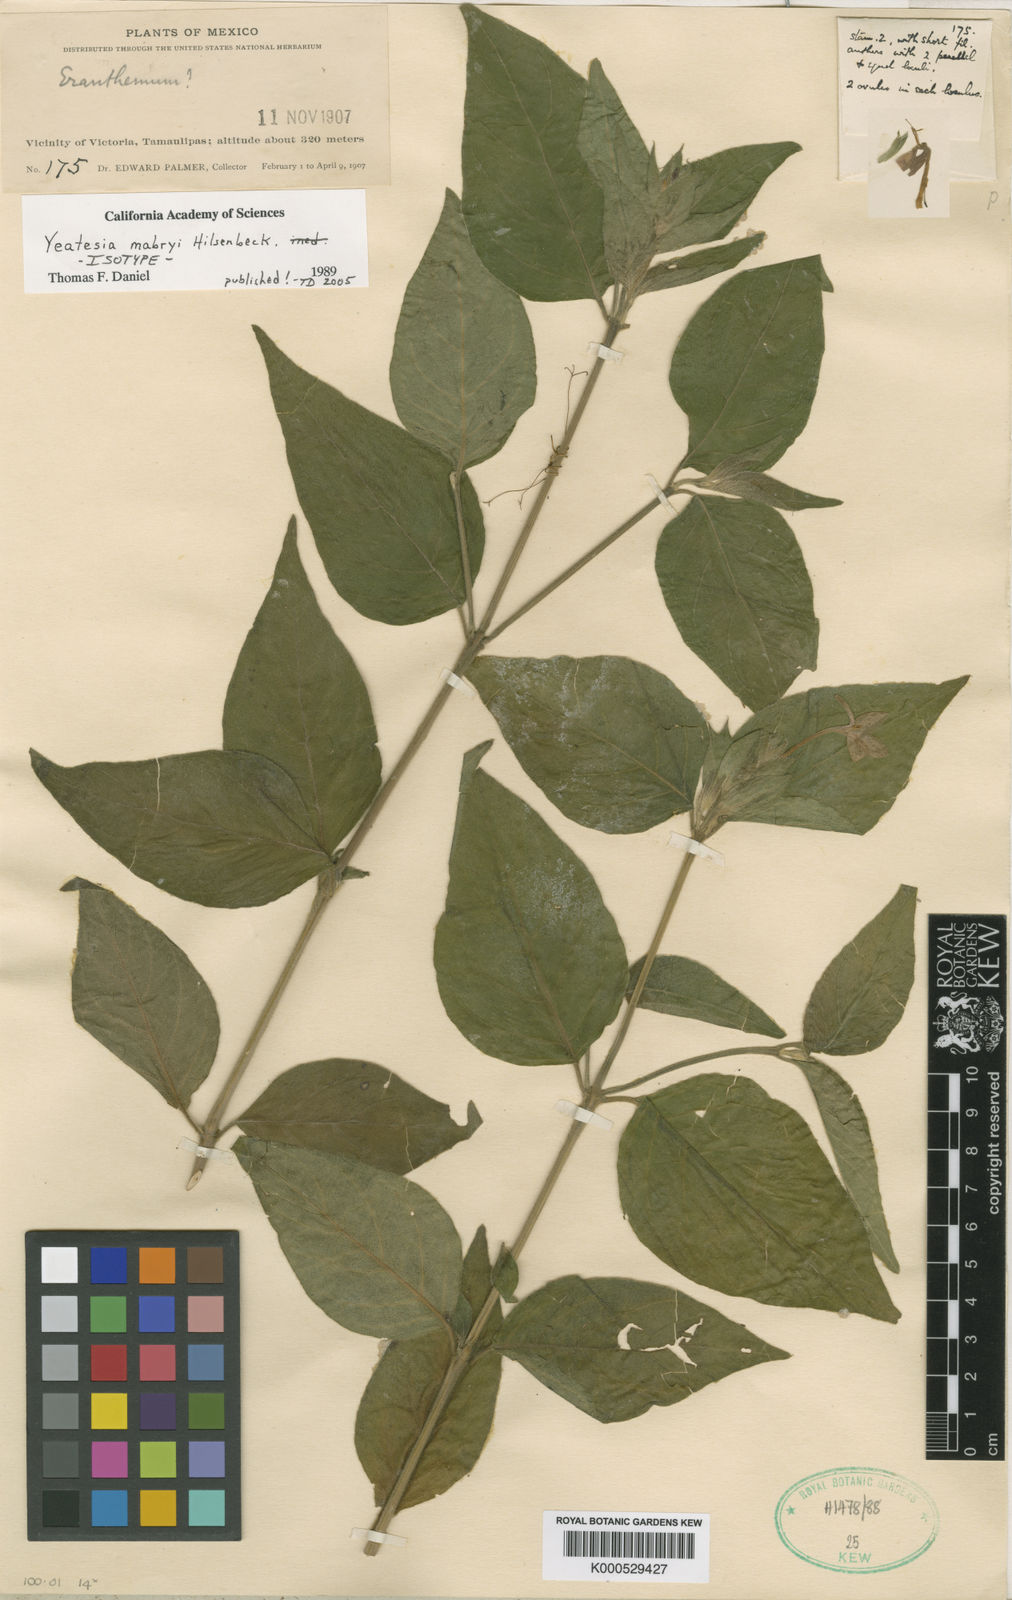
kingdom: Plantae
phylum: Tracheophyta
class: Magnoliopsida
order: Lamiales
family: Acanthaceae
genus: Yeatesia
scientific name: Yeatesia mabryi
